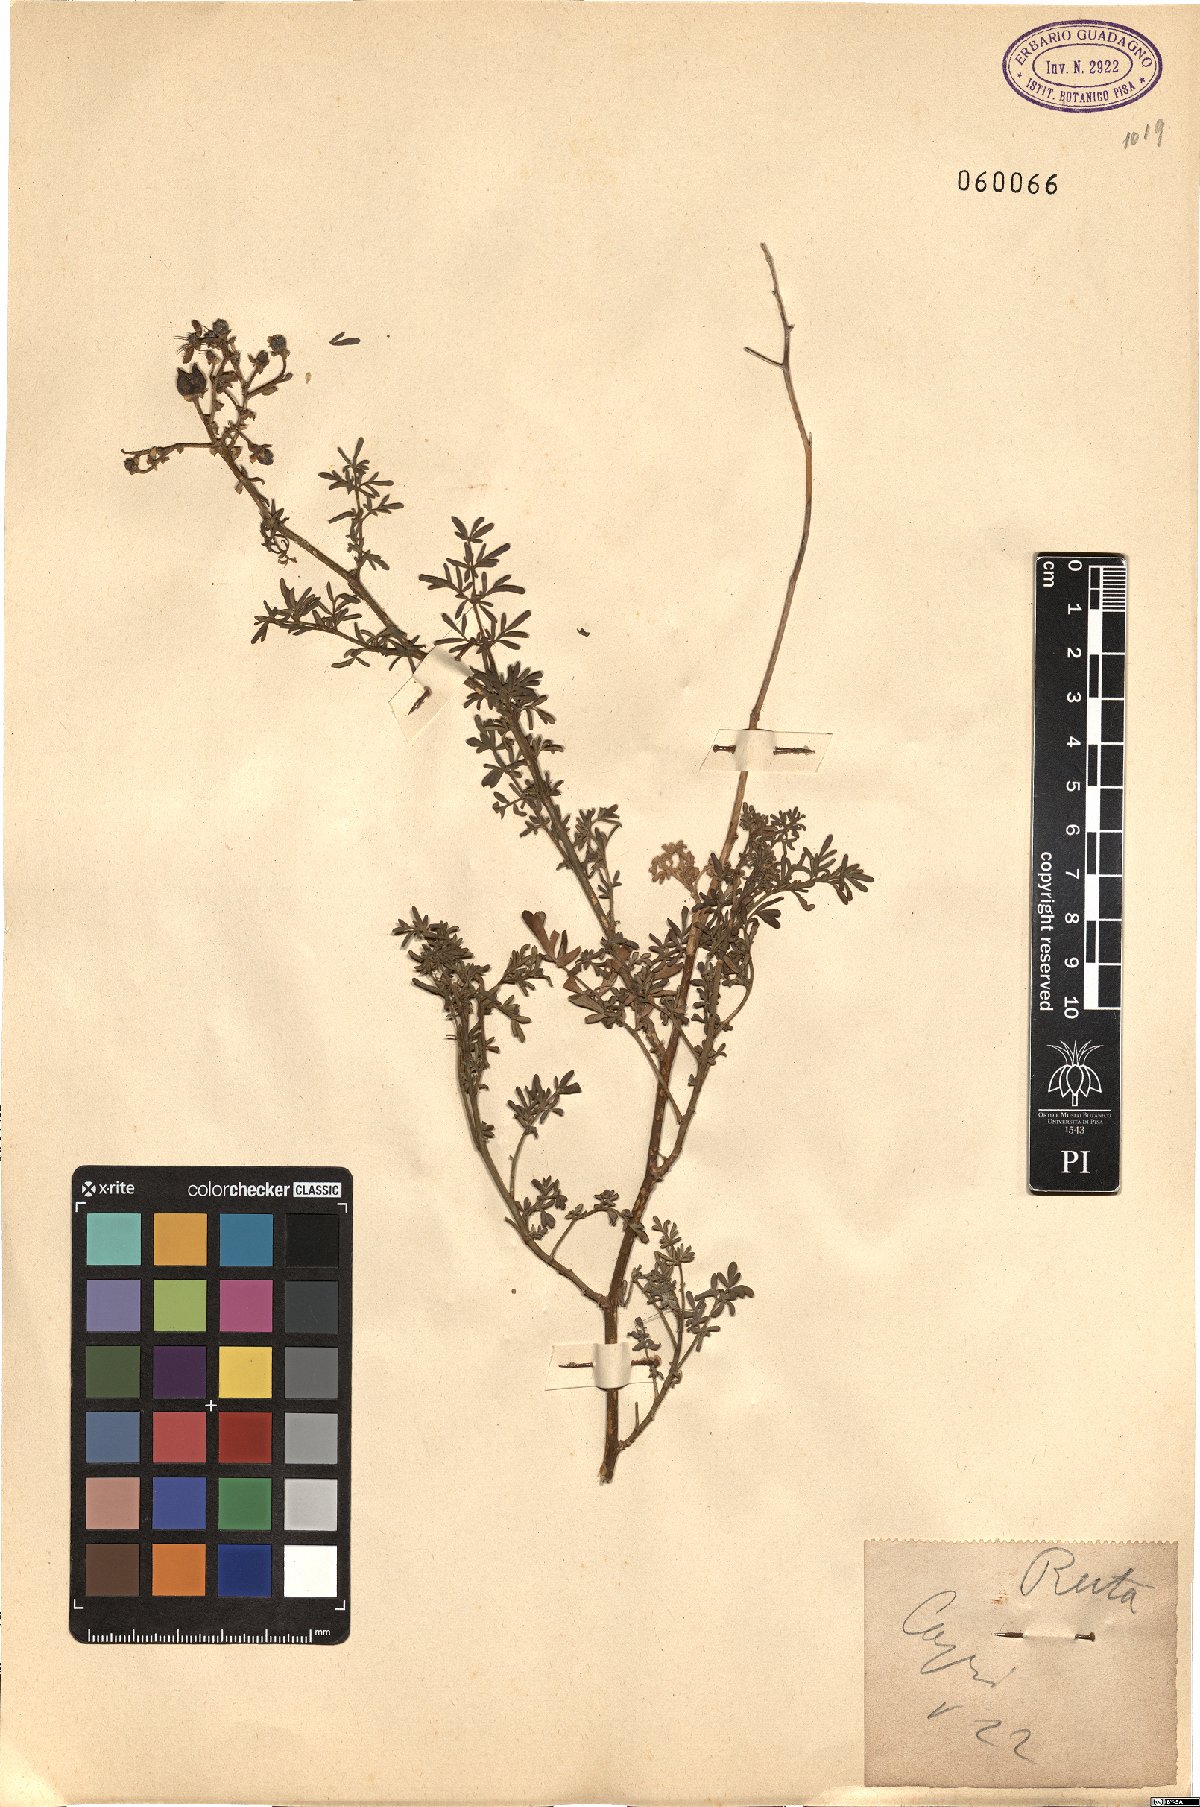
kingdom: Plantae
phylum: Tracheophyta
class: Magnoliopsida
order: Sapindales
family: Rutaceae
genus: Ruta
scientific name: Ruta
